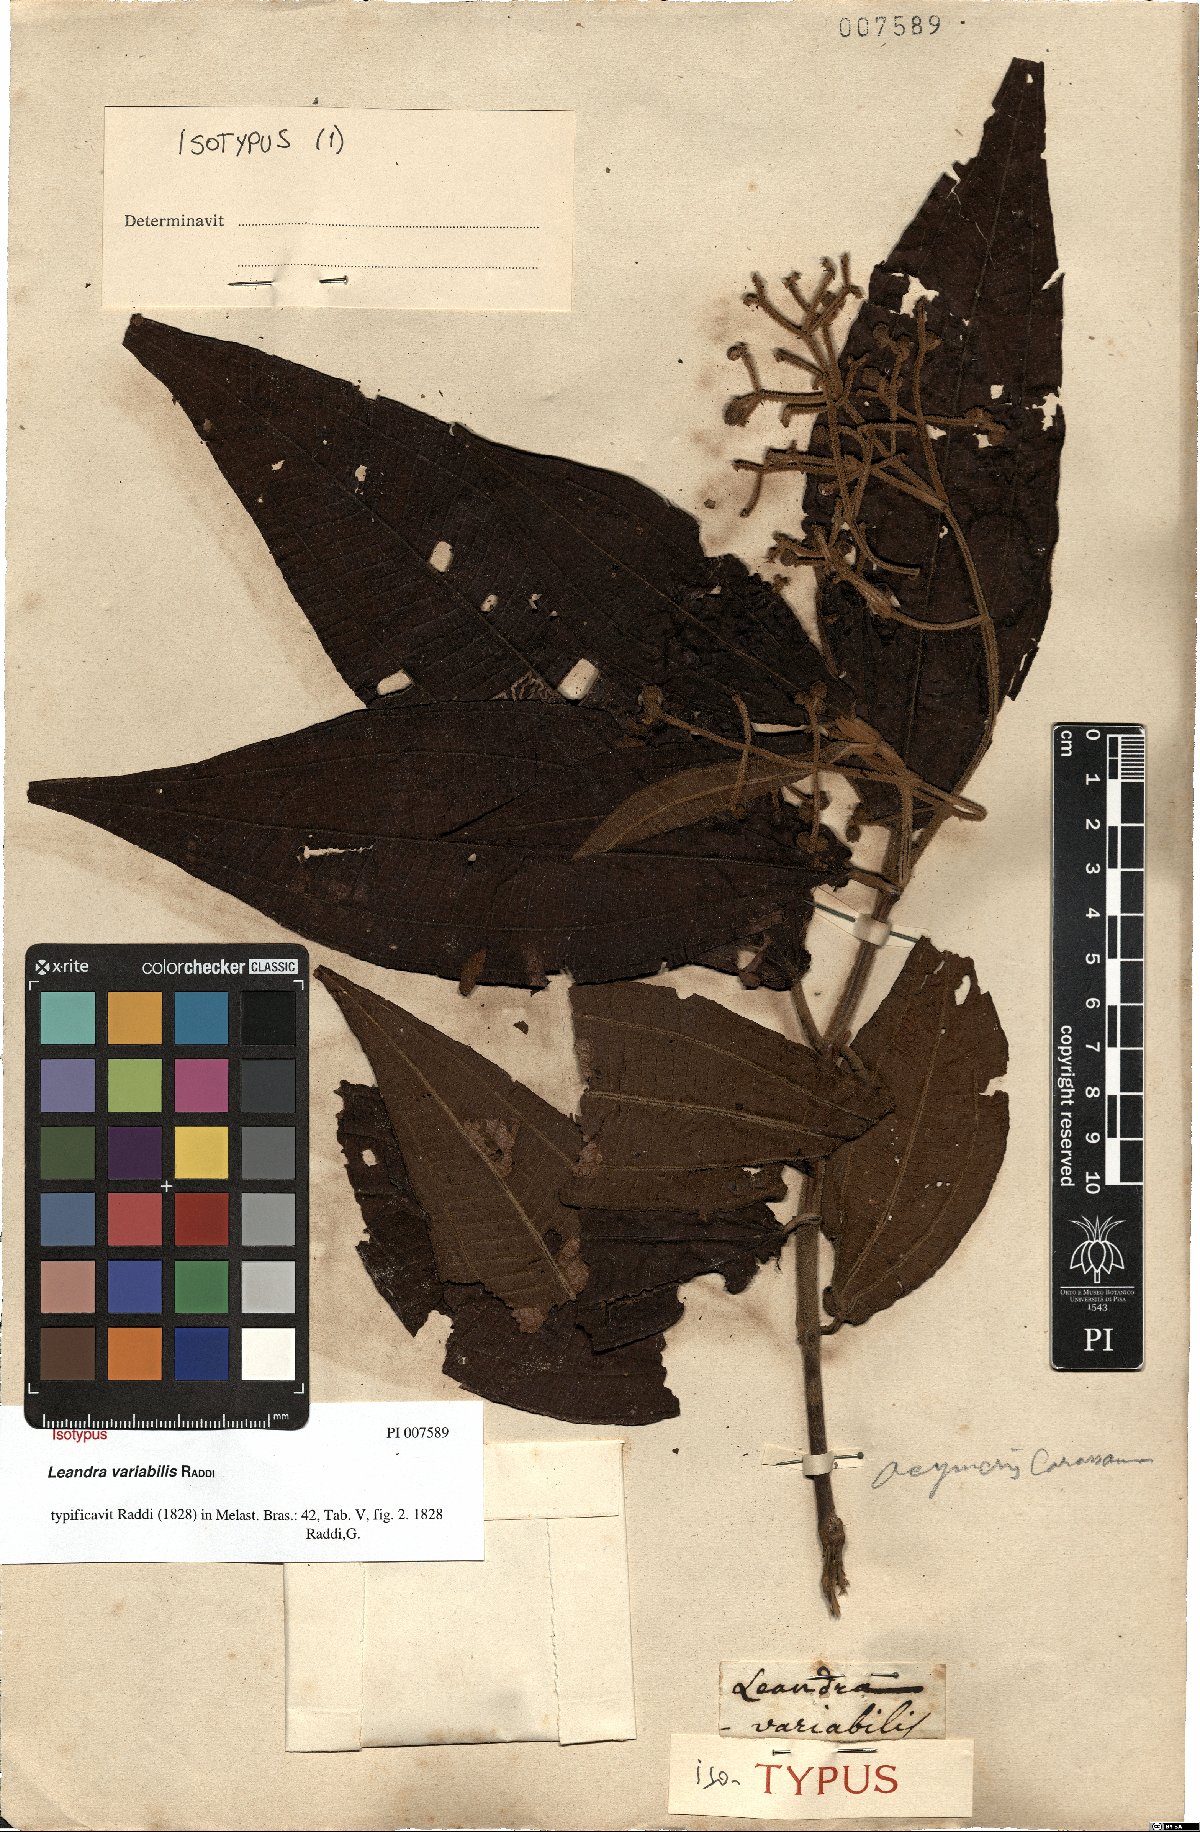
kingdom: Plantae
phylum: Tracheophyta
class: Magnoliopsida
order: Myrtales
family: Melastomataceae
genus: Miconia
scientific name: Miconia dasytricha
